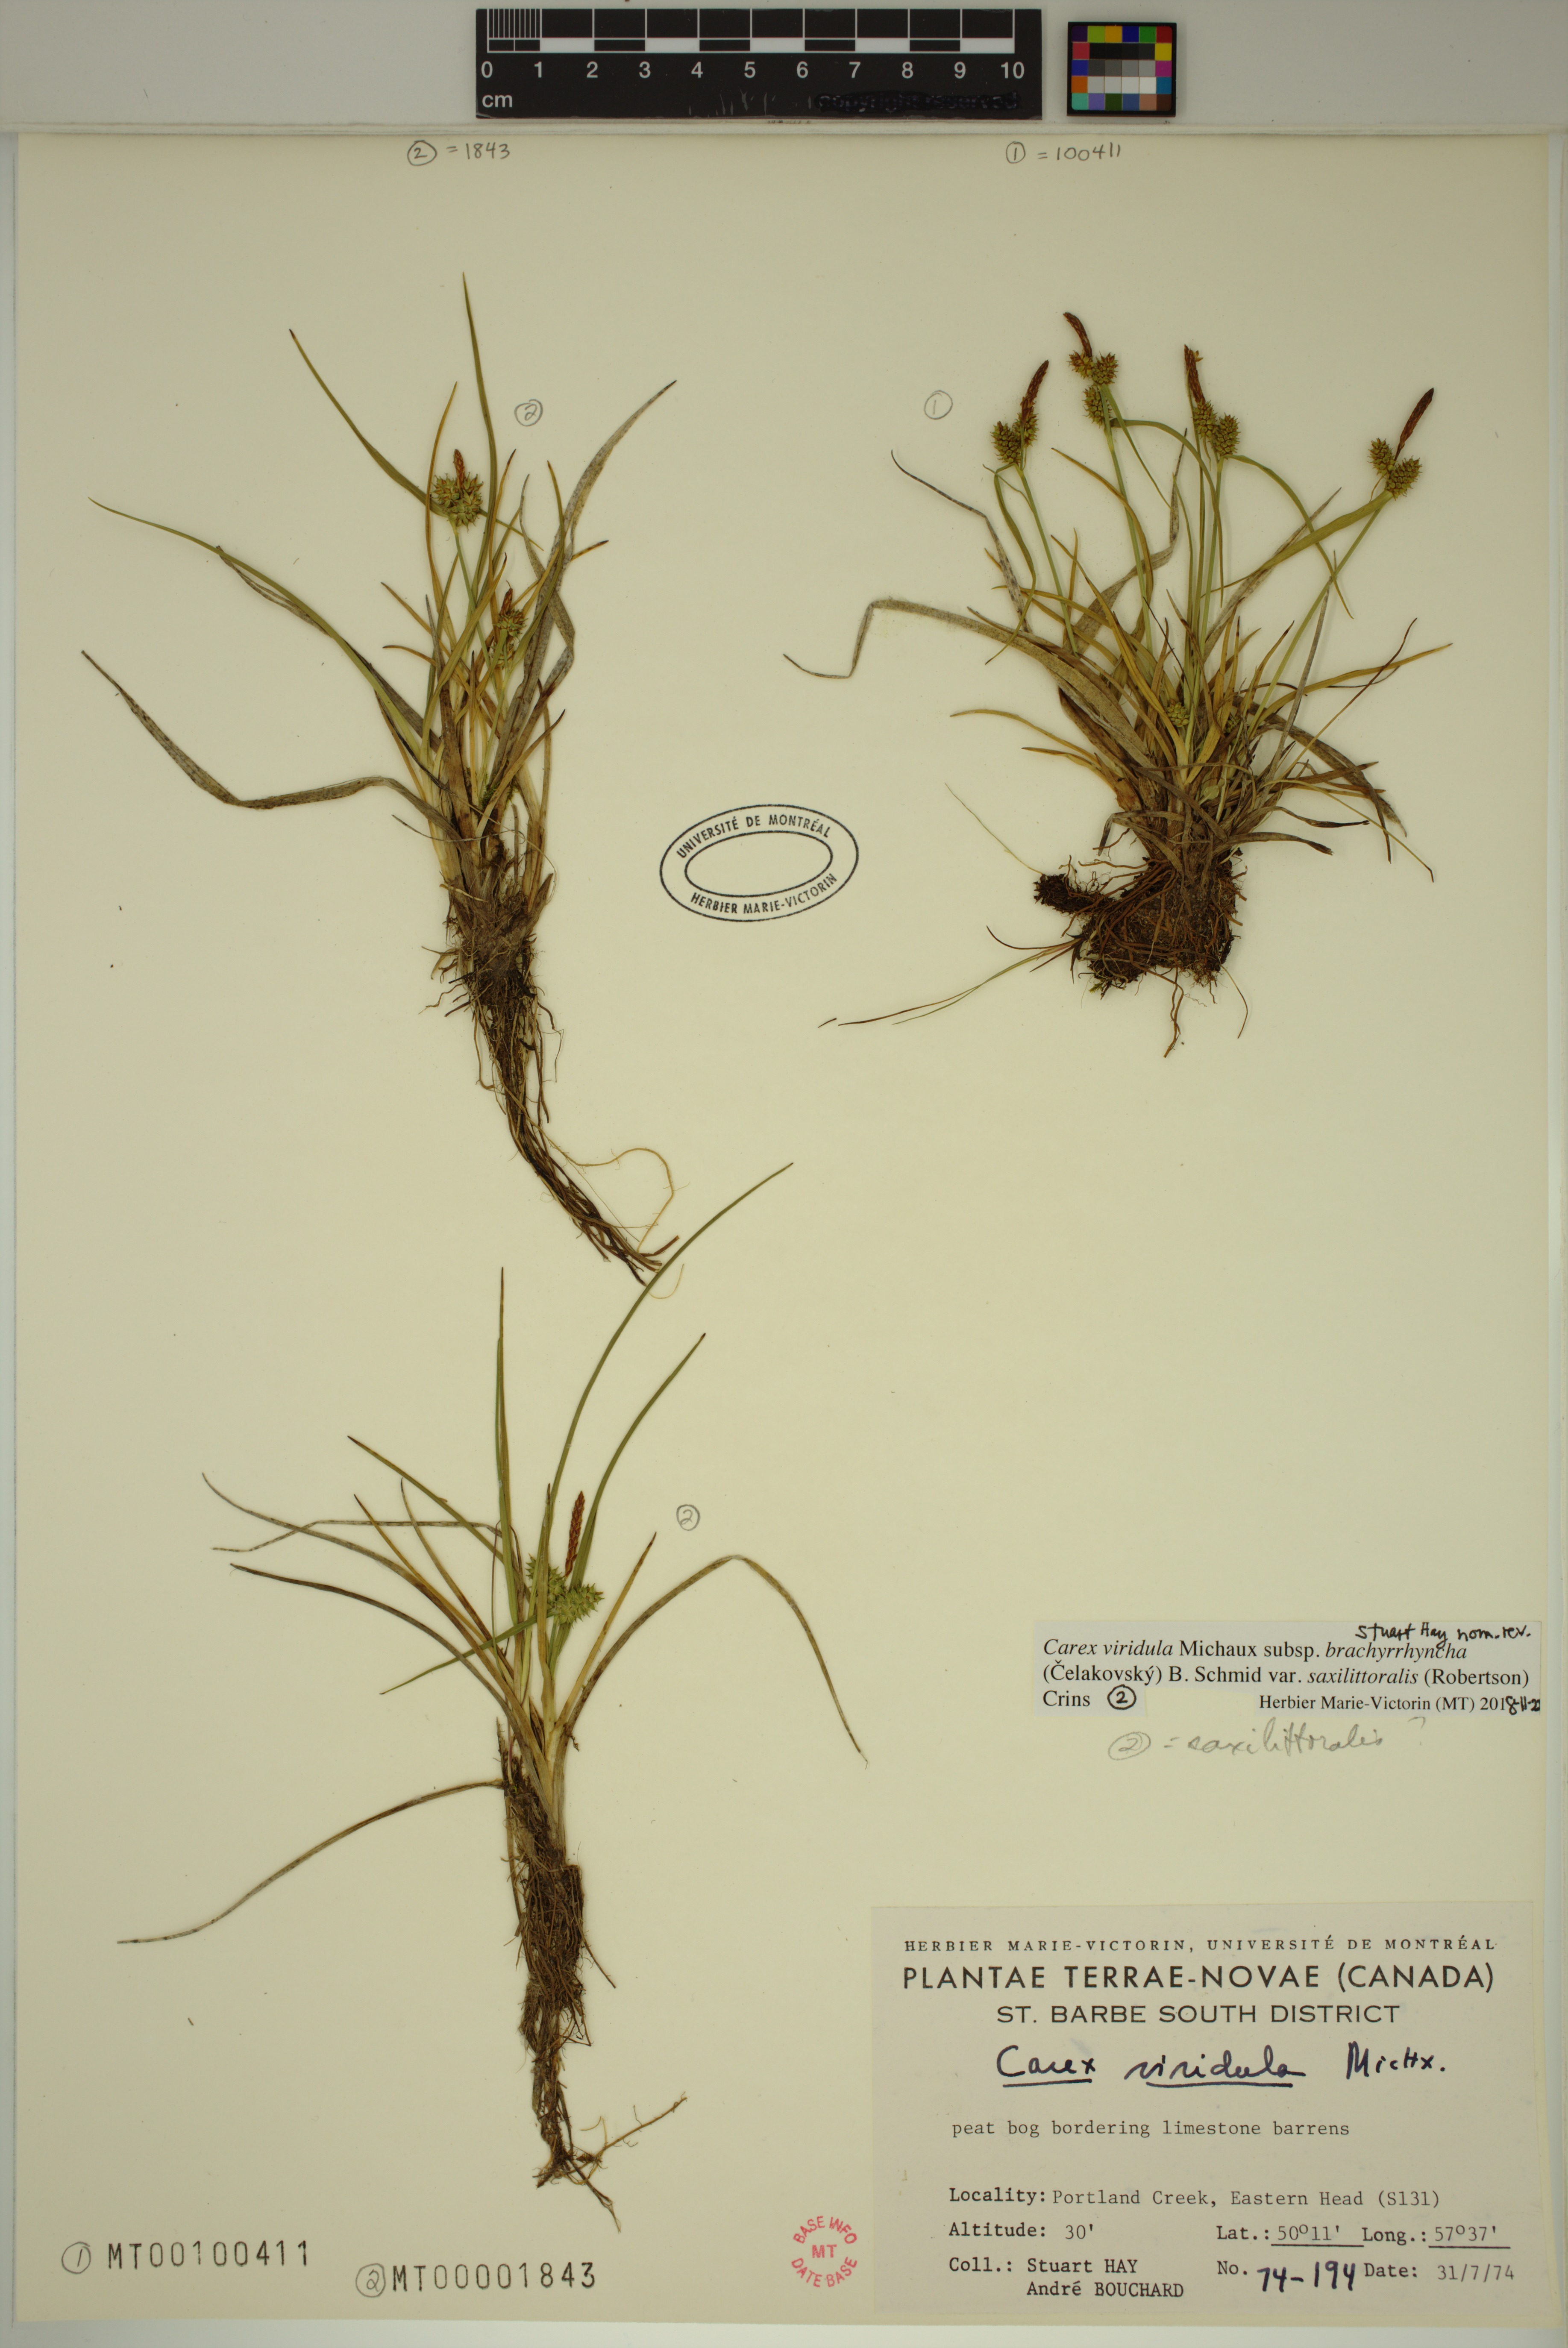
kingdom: Plantae
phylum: Tracheophyta
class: Liliopsida
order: Poales
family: Cyperaceae
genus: Carex
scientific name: Carex saxilittoralis
